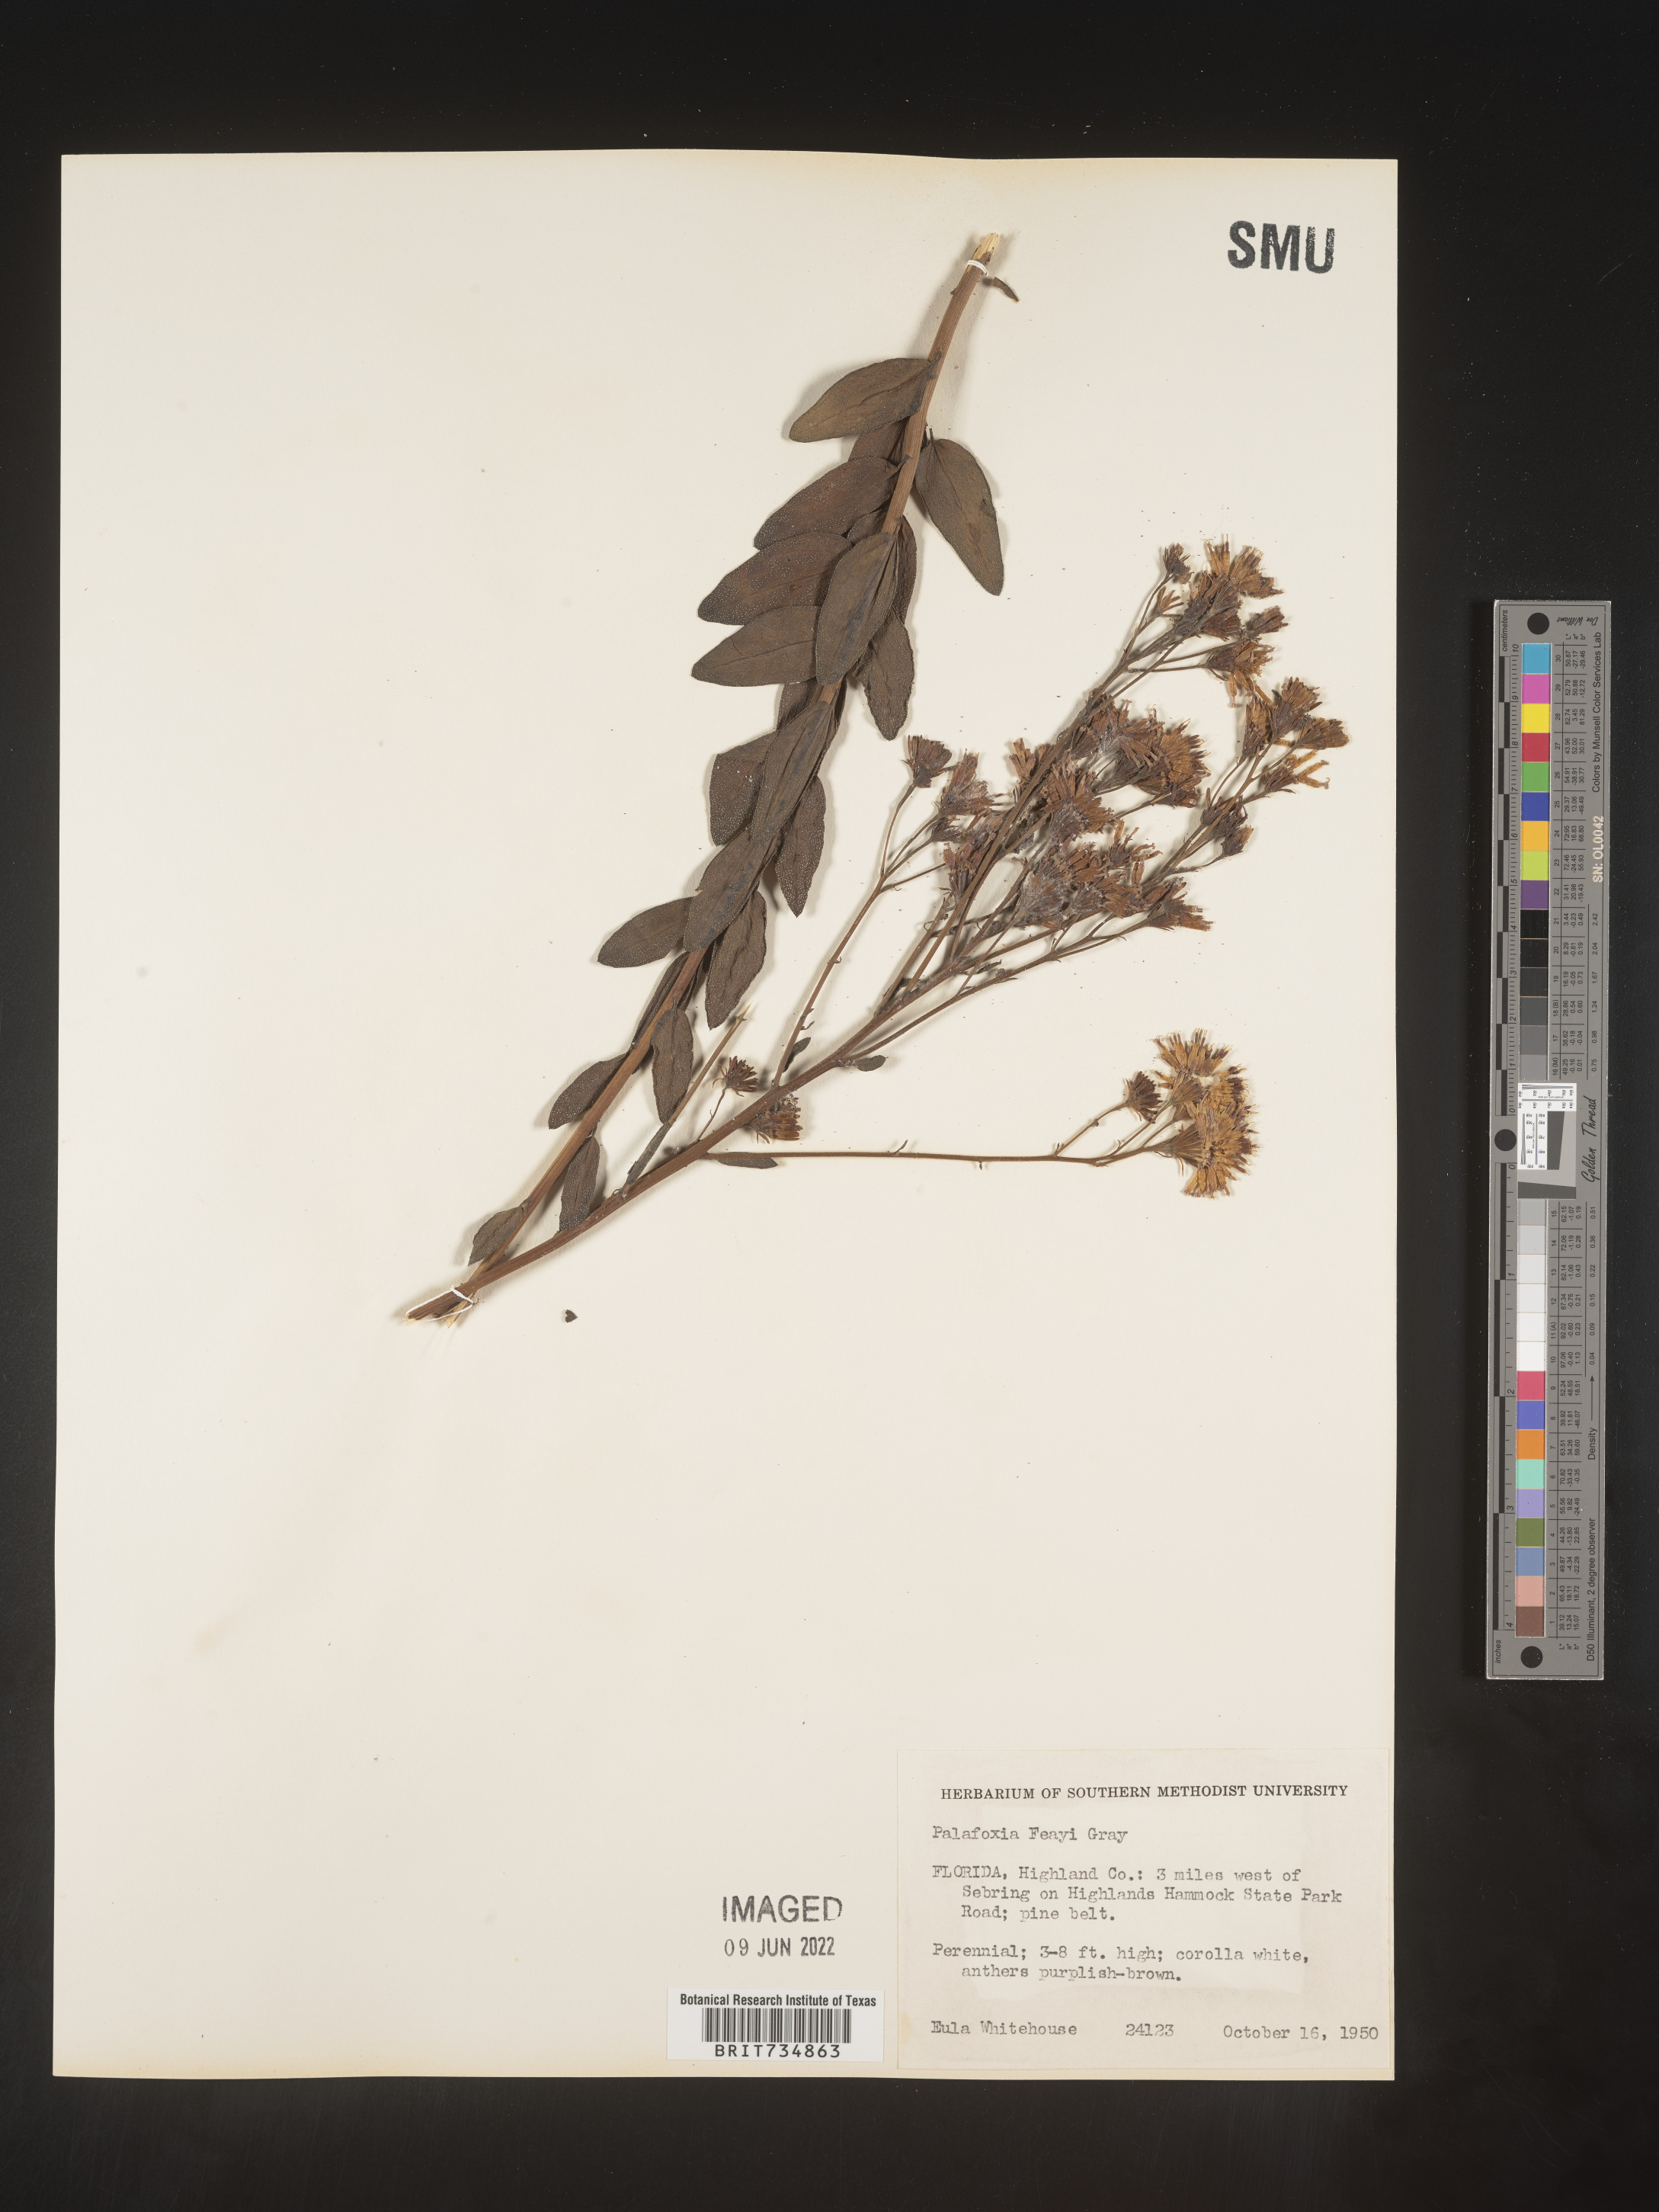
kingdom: Plantae
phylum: Tracheophyta
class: Magnoliopsida
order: Asterales
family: Asteraceae
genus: Palafoxia
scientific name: Palafoxia feayi
